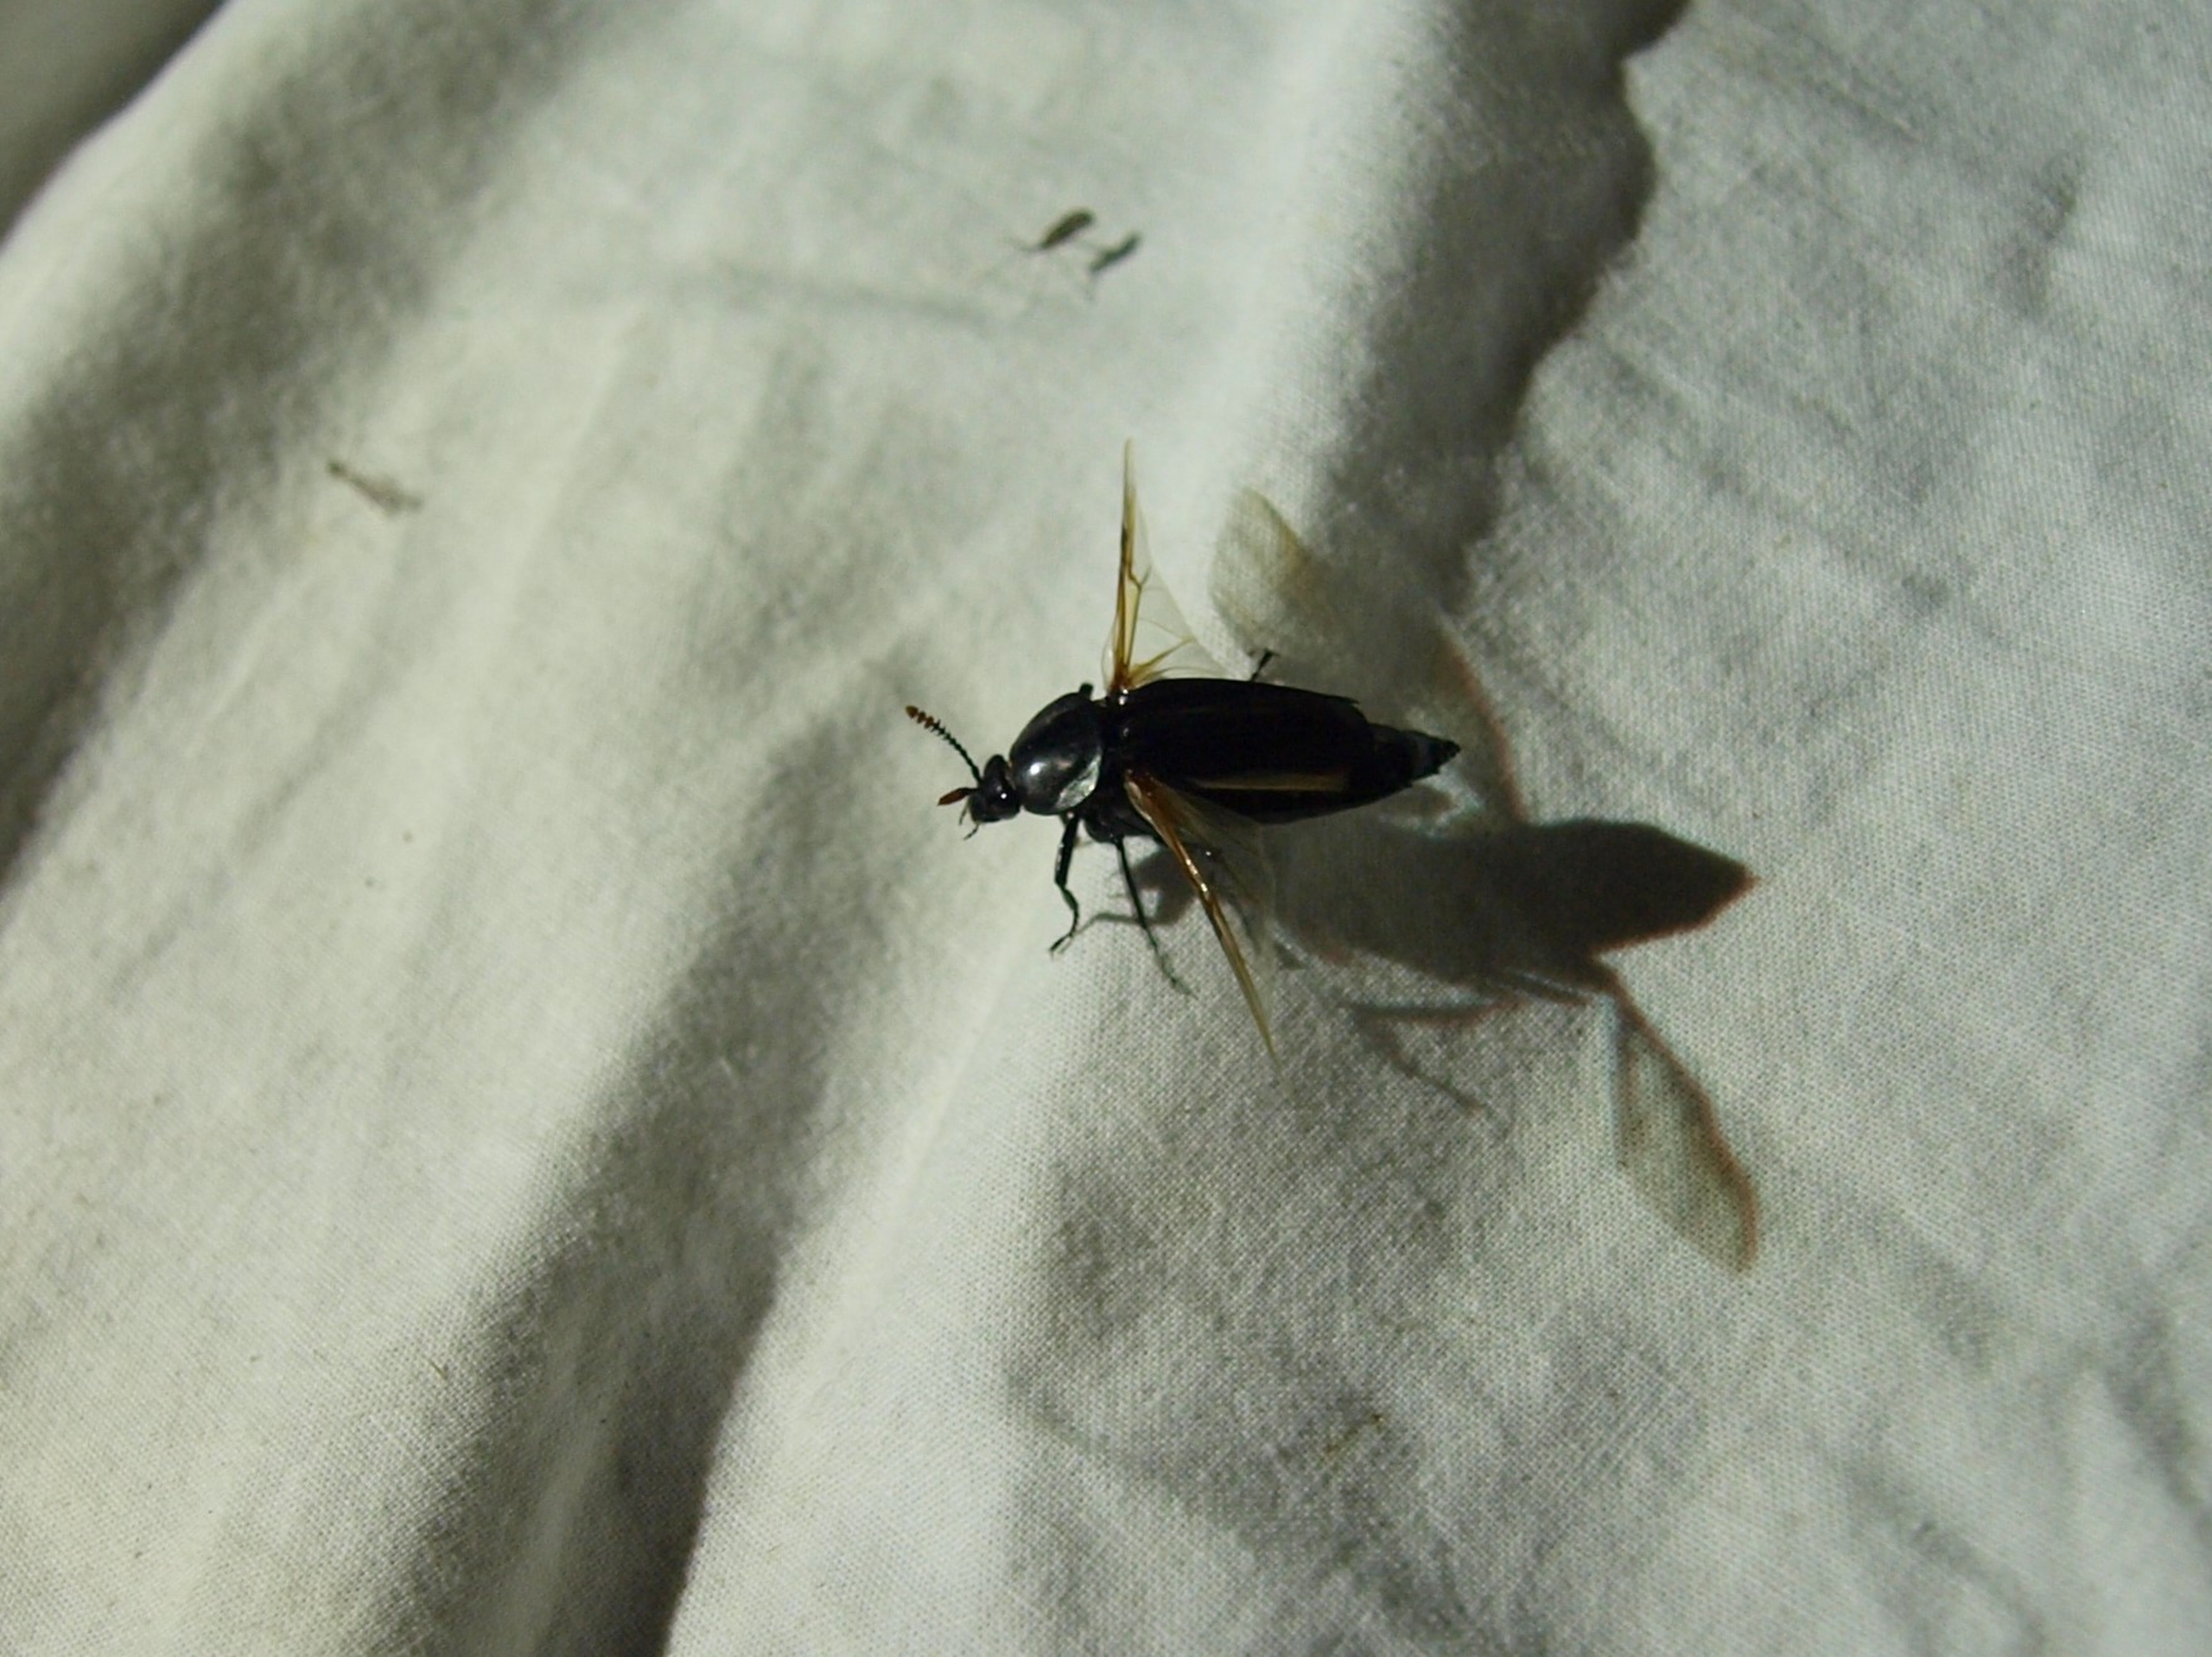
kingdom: Animalia
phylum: Arthropoda
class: Insecta
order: Coleoptera
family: Staphylinidae
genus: Necrodes
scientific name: Necrodes littoralis
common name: Ligrøver
